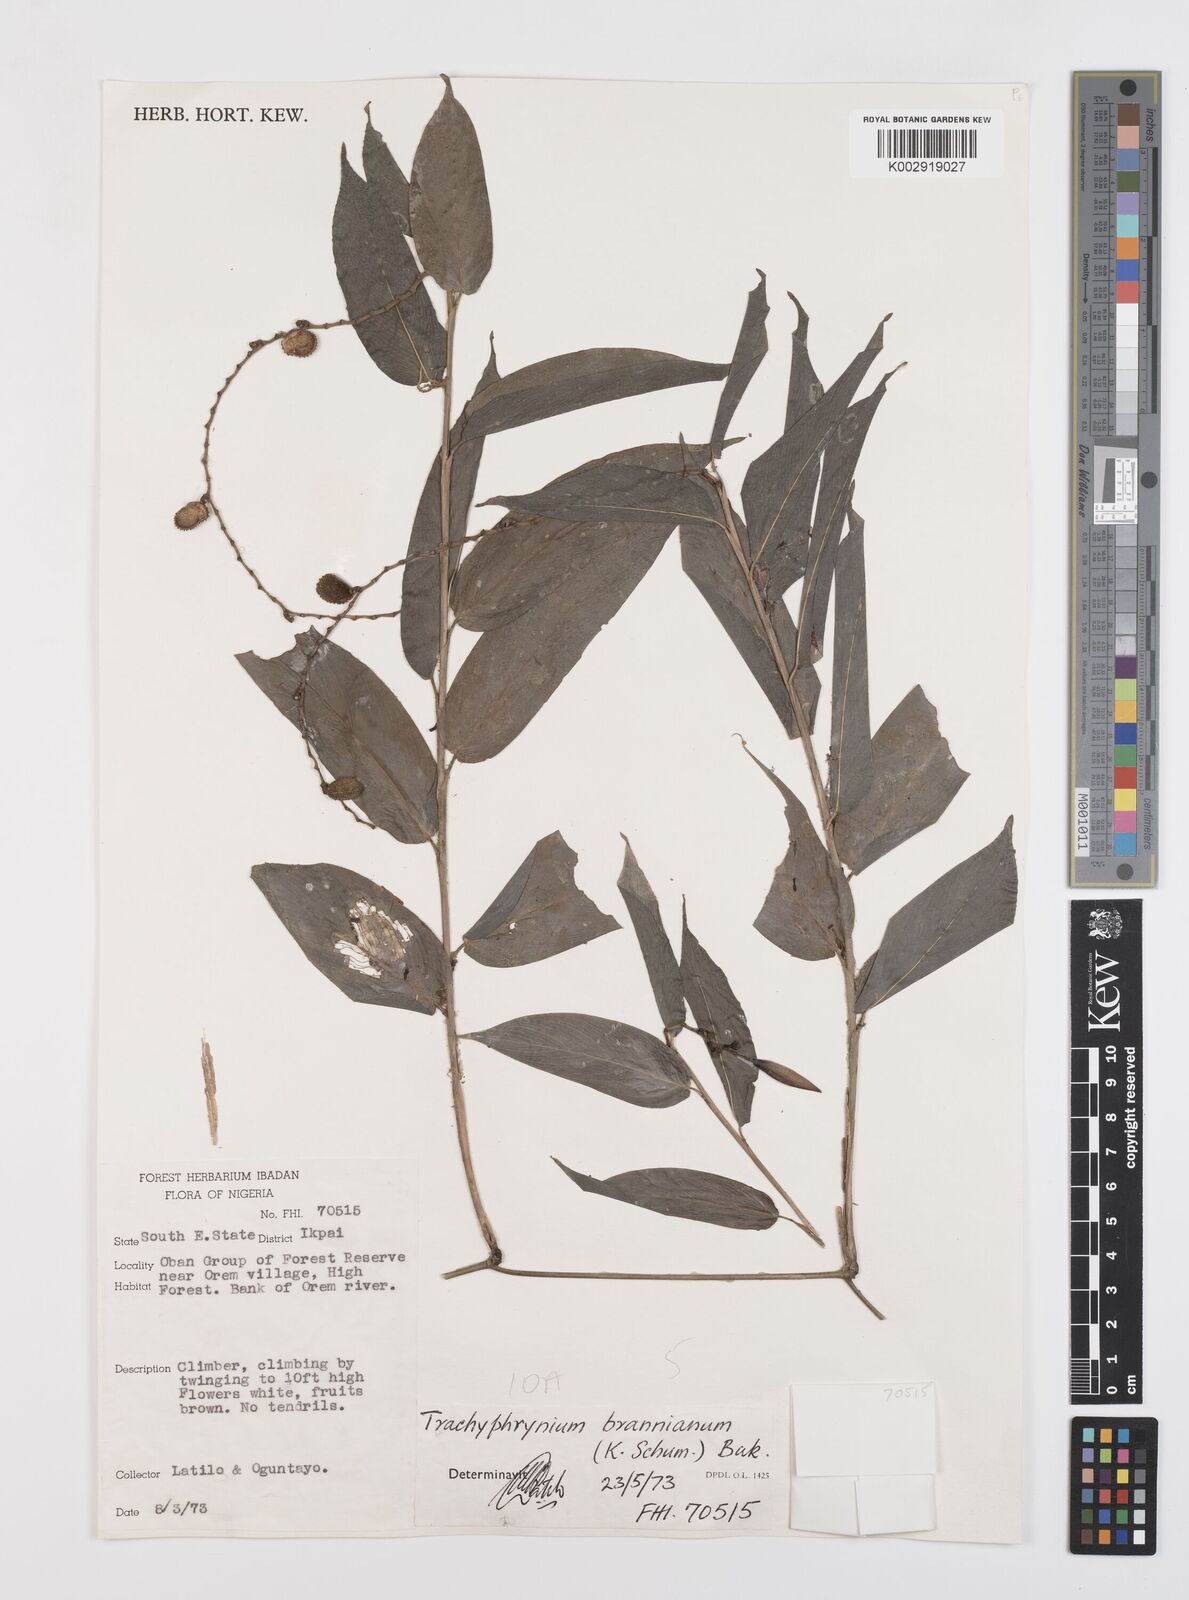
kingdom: Plantae
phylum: Tracheophyta
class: Liliopsida
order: Zingiberales
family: Marantaceae
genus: Trachyphrynium
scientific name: Trachyphrynium braunianum
